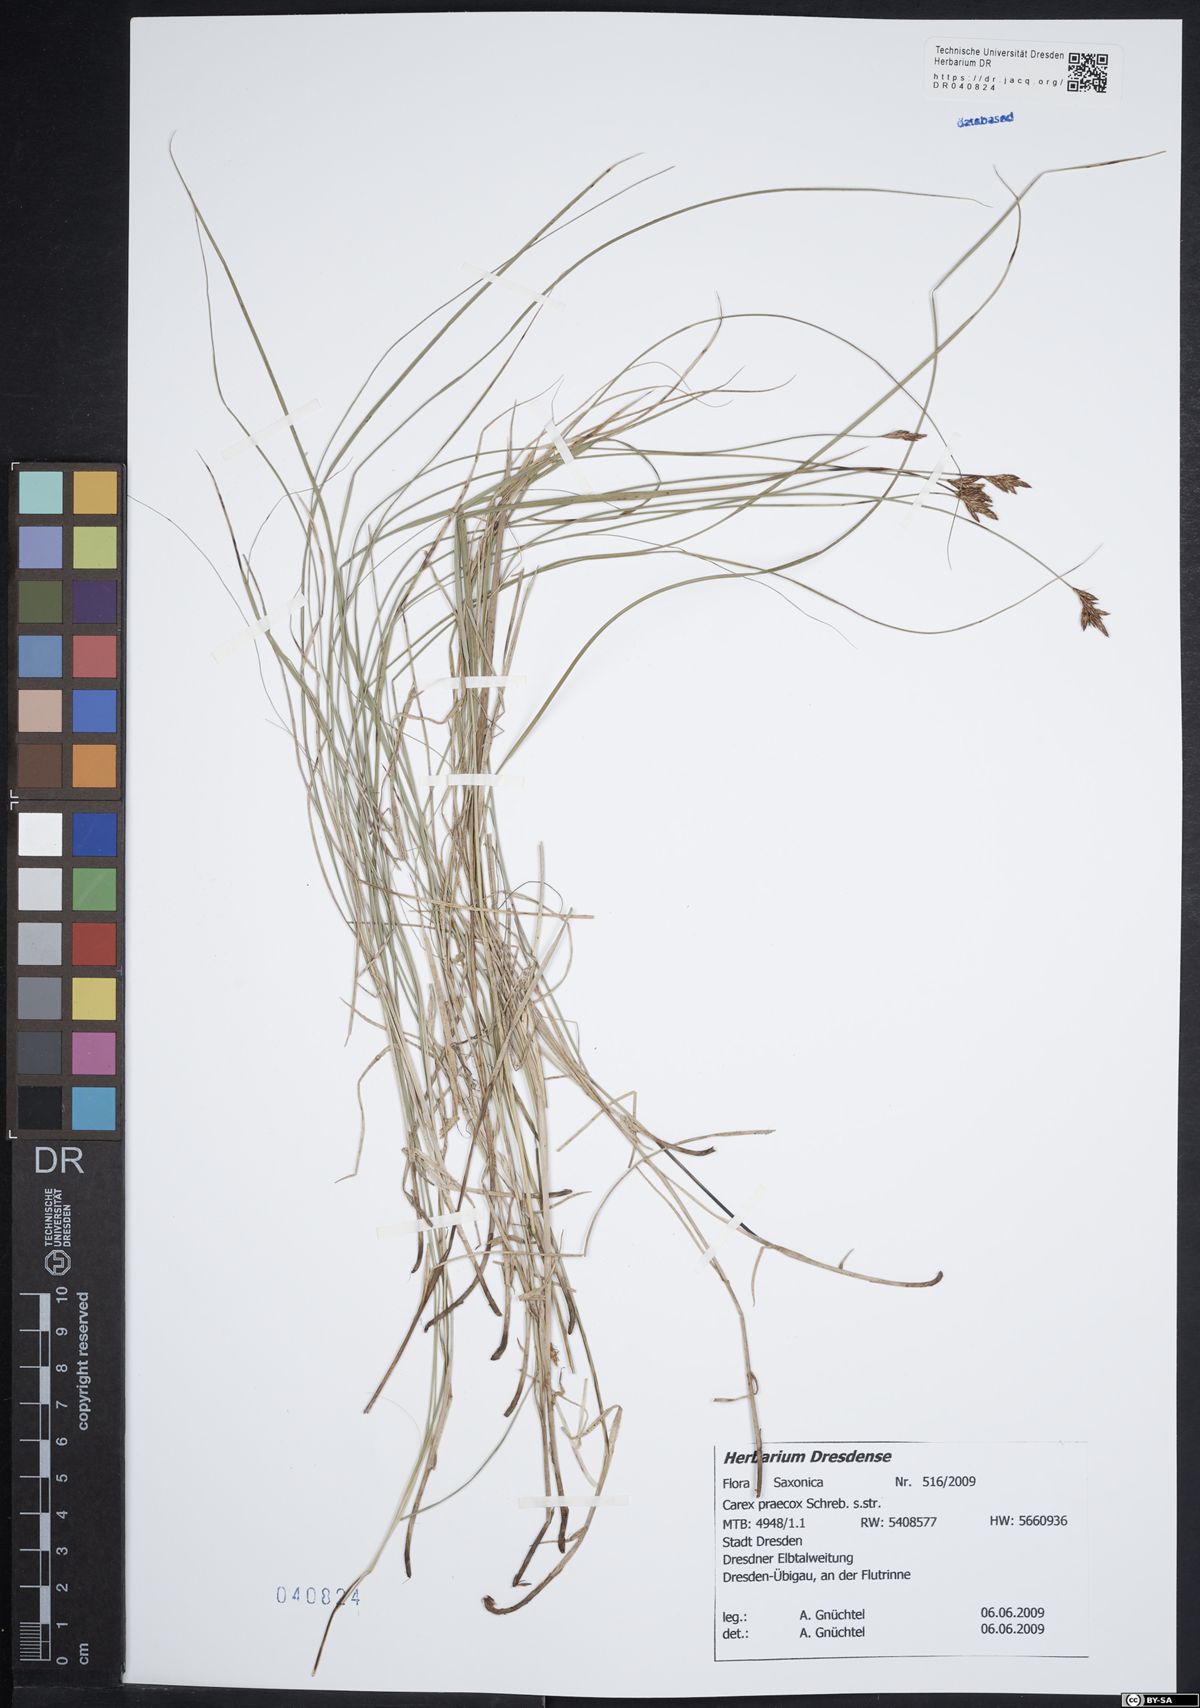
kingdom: Plantae
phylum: Tracheophyta
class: Liliopsida
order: Poales
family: Cyperaceae
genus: Carex
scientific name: Carex praecox
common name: Early sedge
